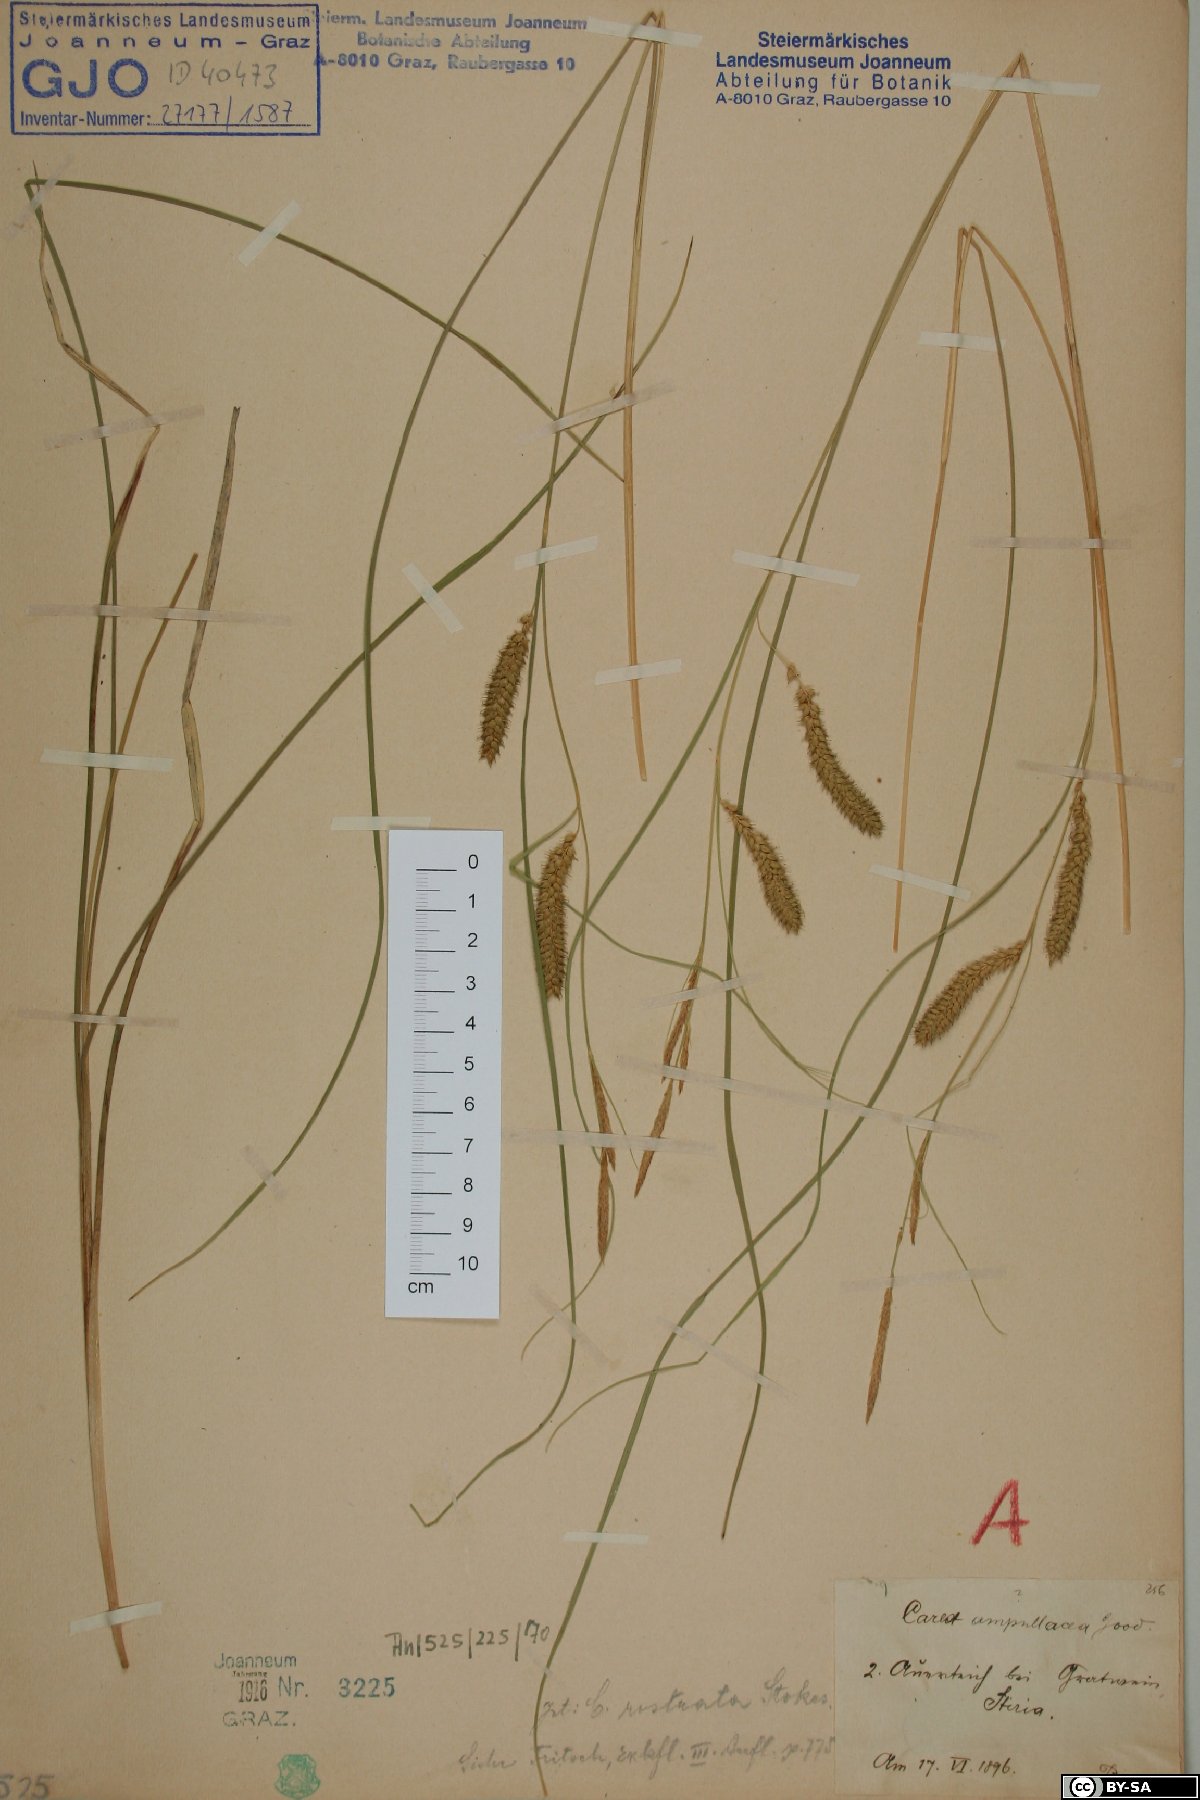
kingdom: Plantae
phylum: Tracheophyta
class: Liliopsida
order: Poales
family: Cyperaceae
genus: Carex
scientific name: Carex rostrata
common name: Bottle sedge
